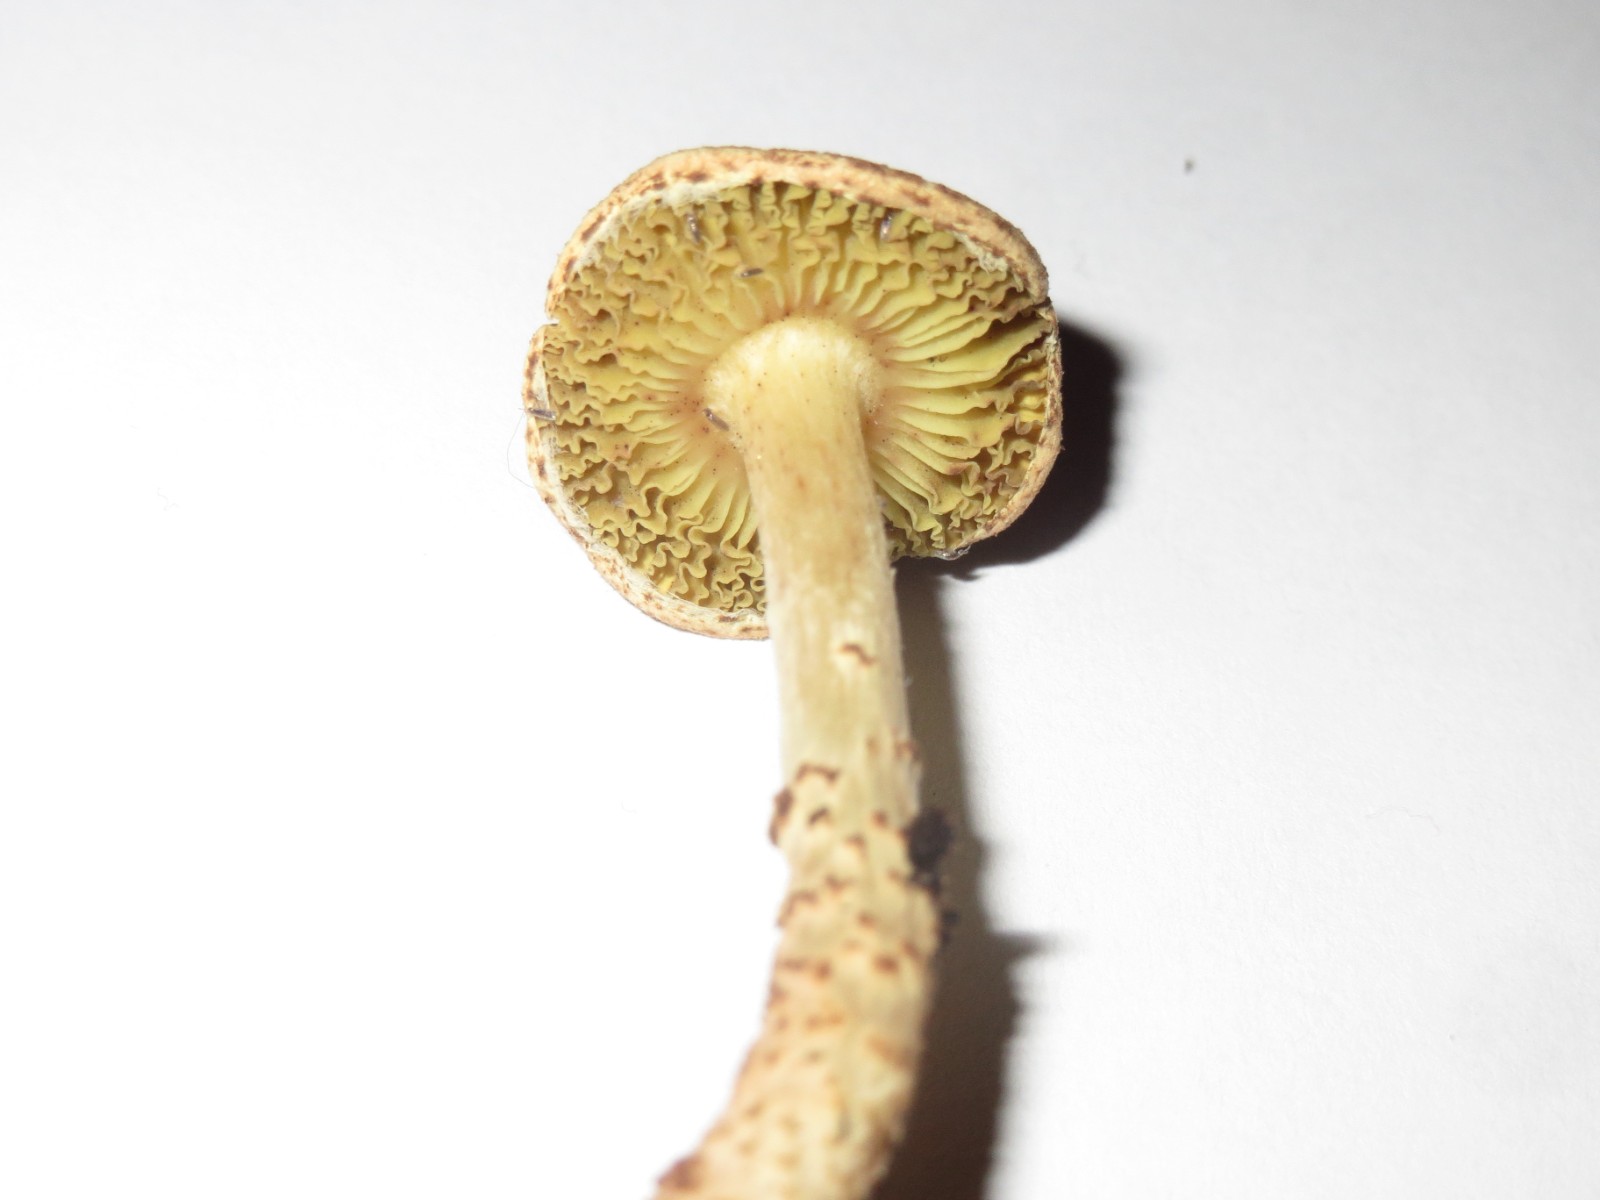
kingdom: Fungi
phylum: Basidiomycota
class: Agaricomycetes
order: Agaricales
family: Agaricaceae
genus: Lepiota
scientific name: Lepiota elaiophylla
